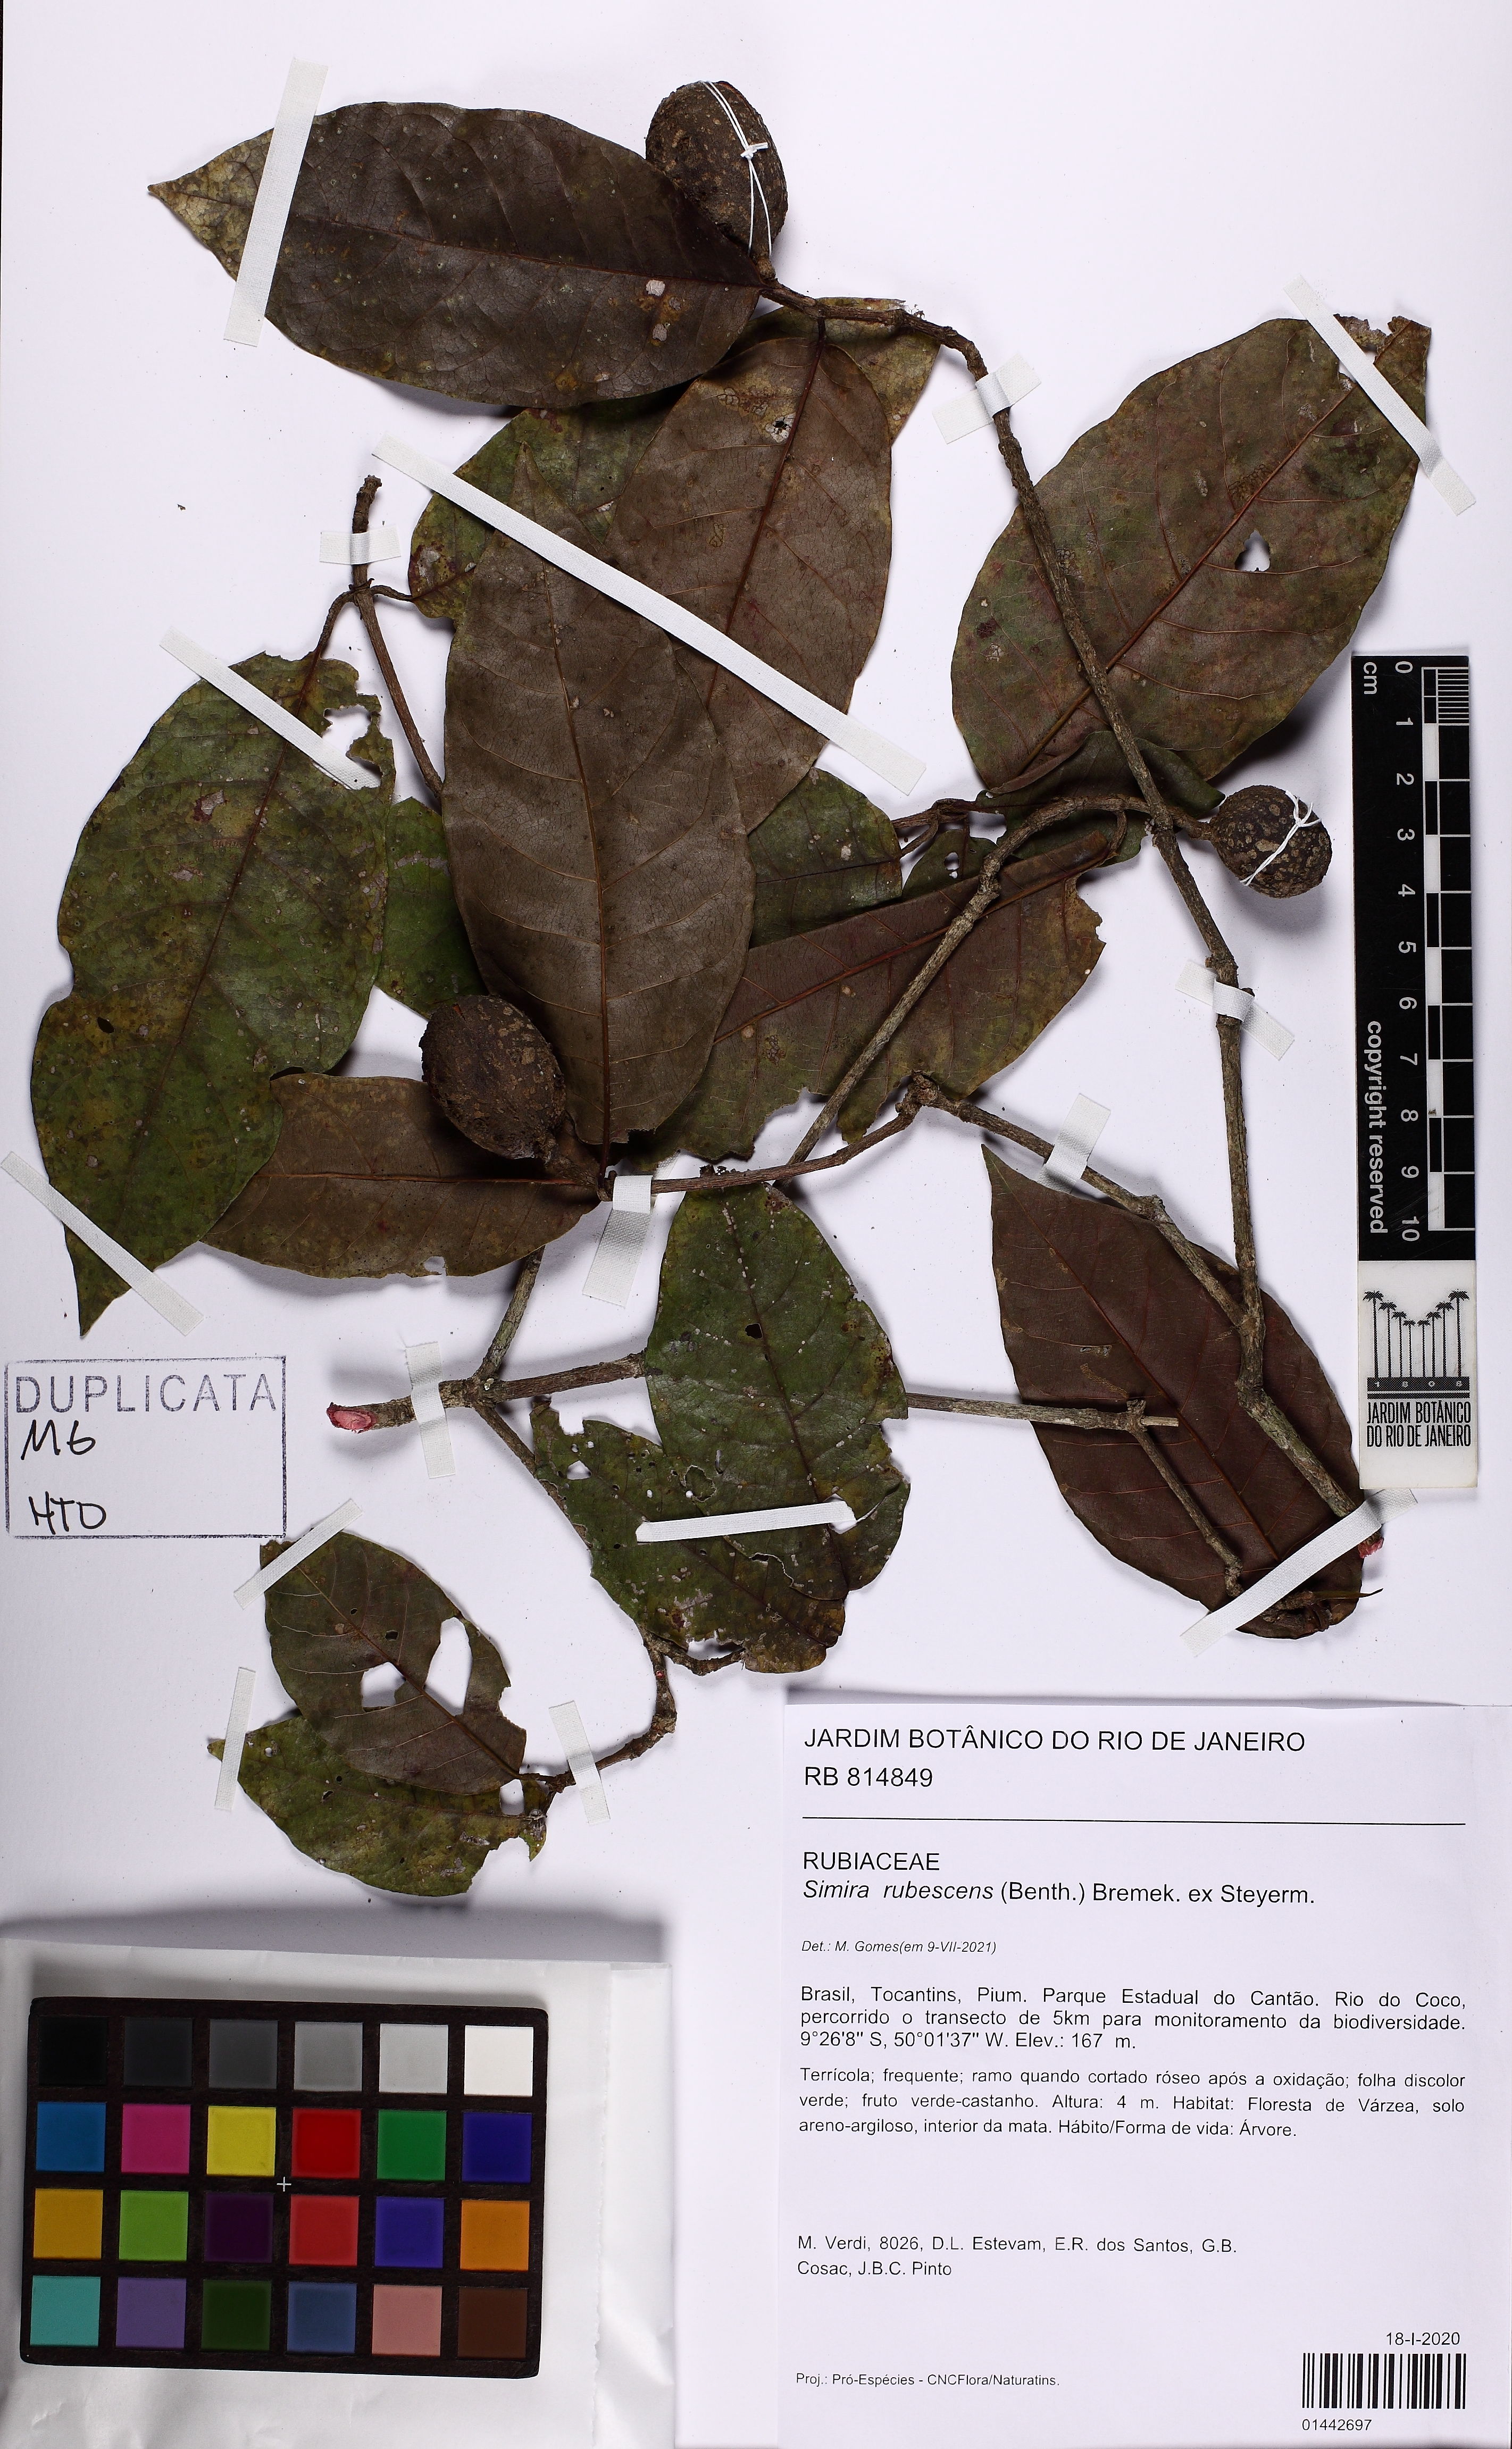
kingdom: Plantae
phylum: Tracheophyta
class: Magnoliopsida
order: Gentianales
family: Rubiaceae
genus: Simira
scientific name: Simira rubescens
